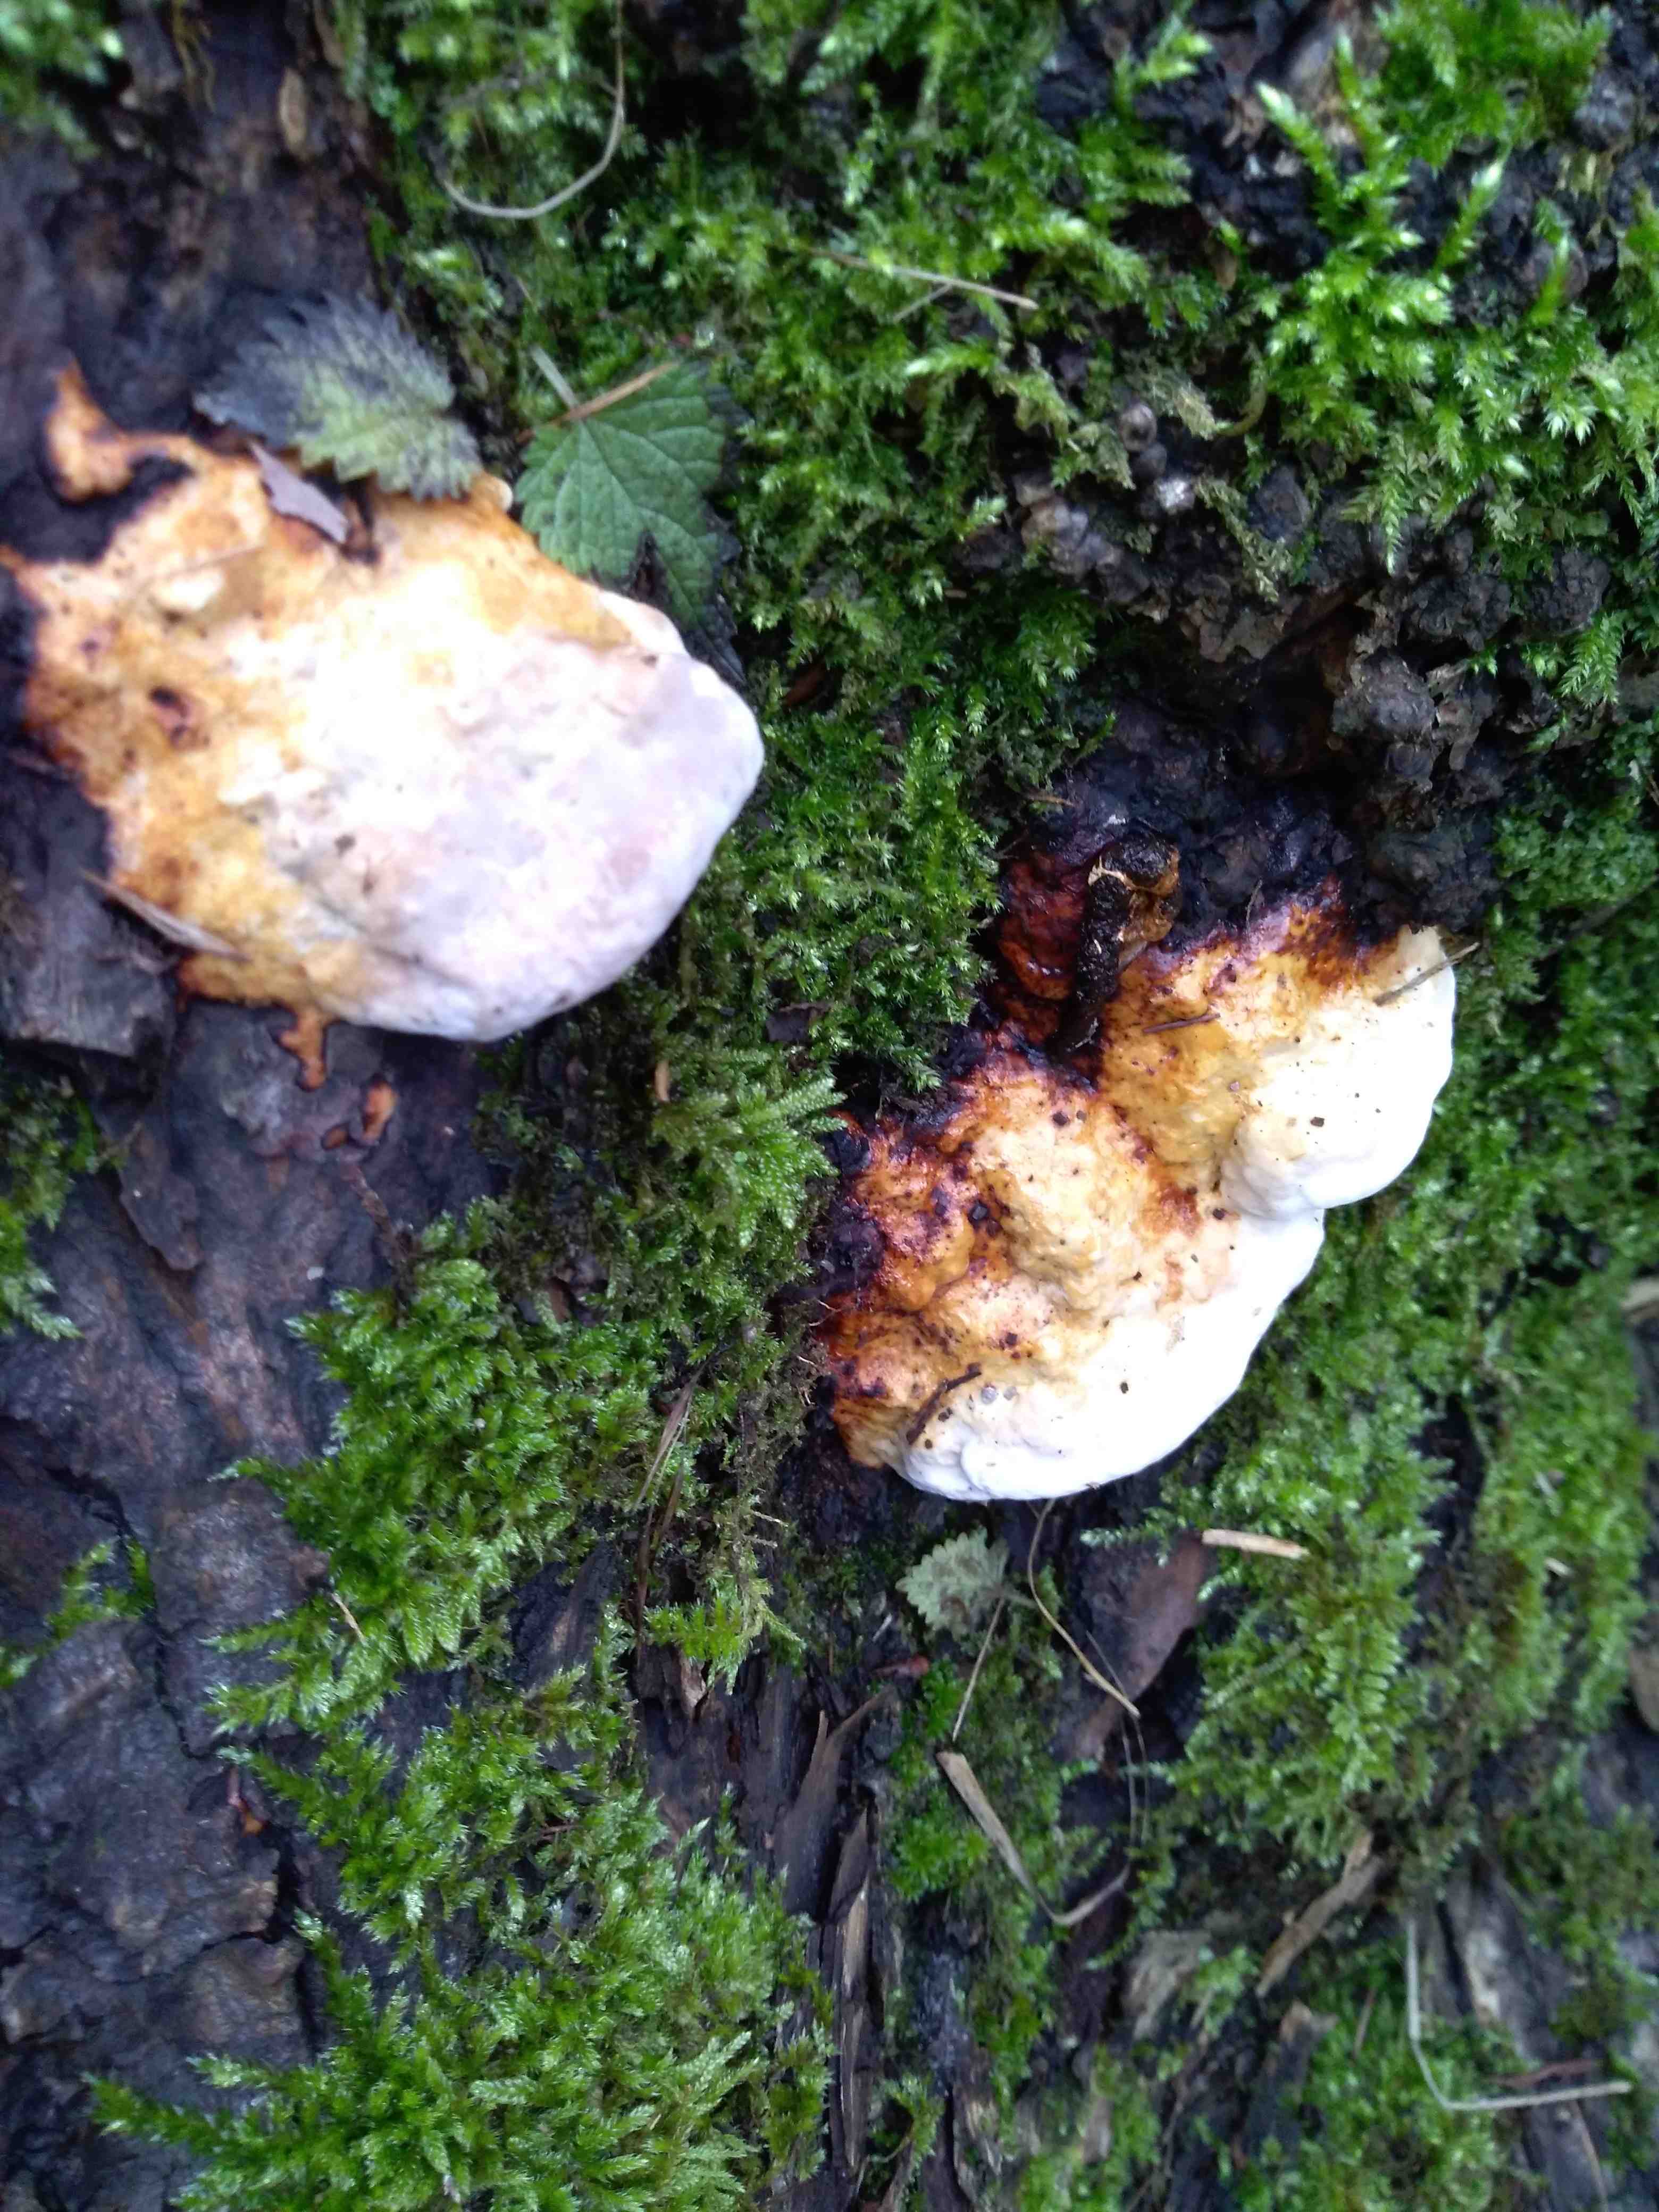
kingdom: Fungi
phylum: Basidiomycota
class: Agaricomycetes
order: Polyporales
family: Fomitopsidaceae
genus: Fomitopsis
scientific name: Fomitopsis pinicola
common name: randbæltet hovporesvamp
